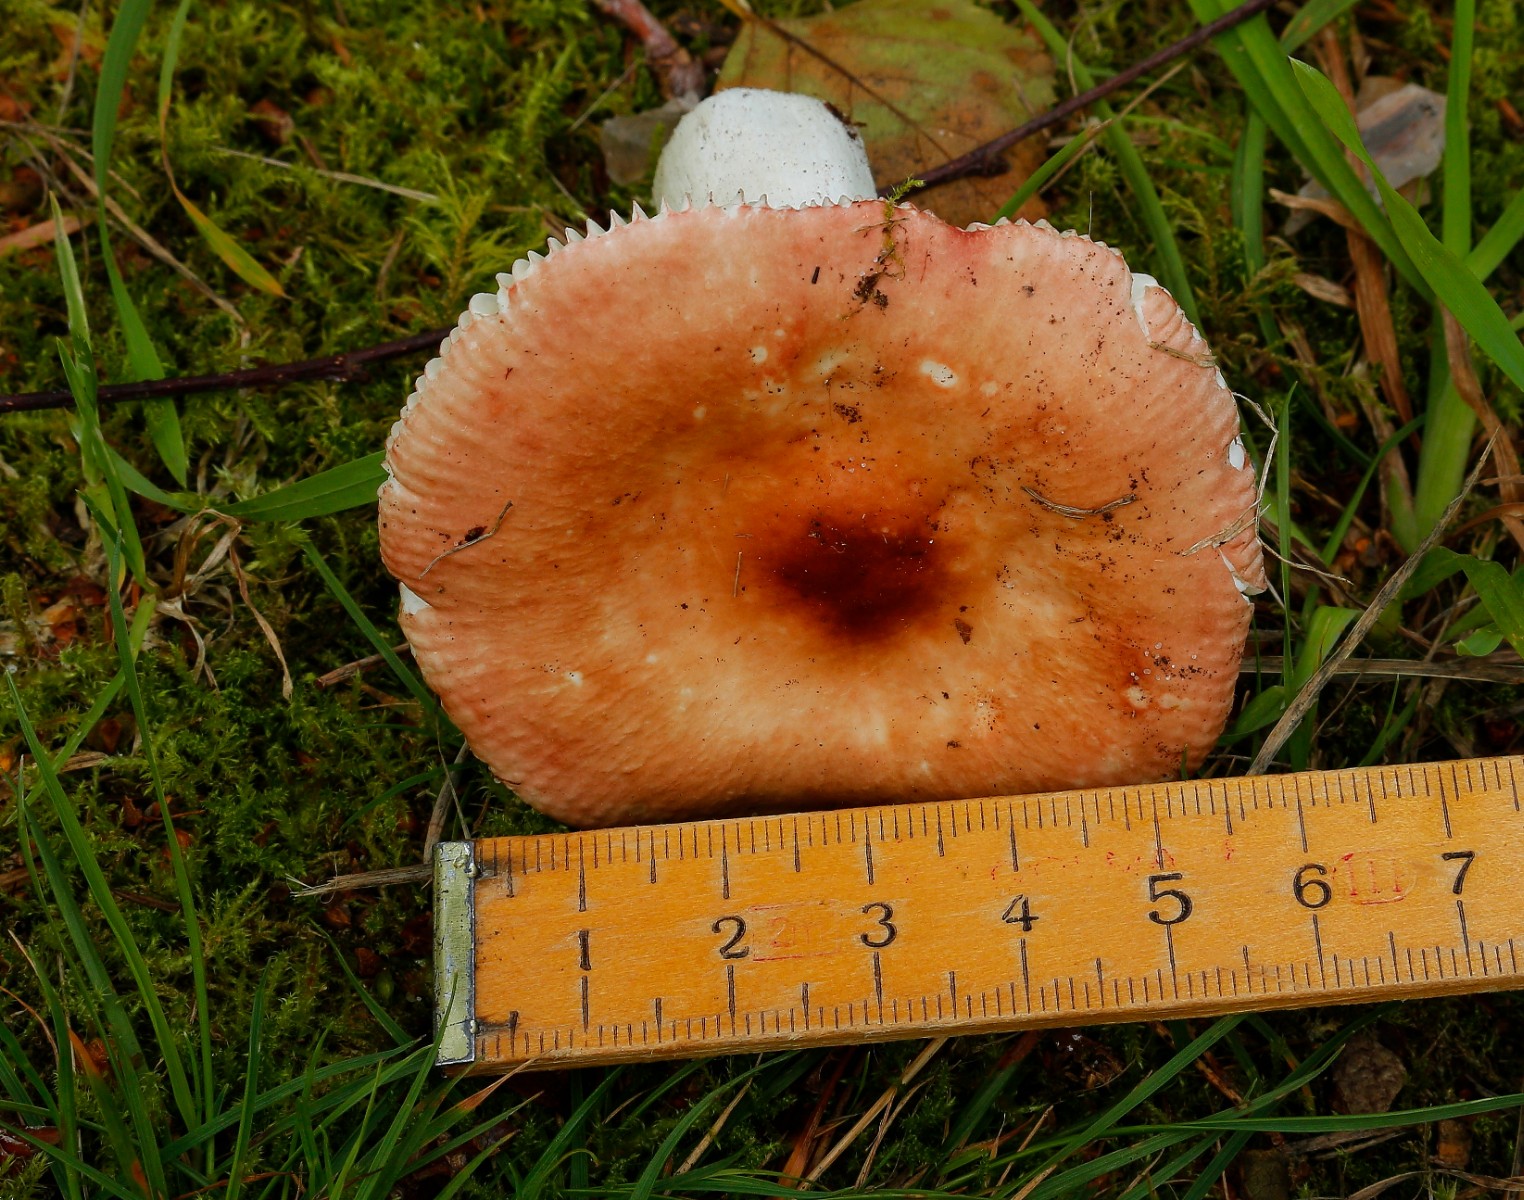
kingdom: Fungi
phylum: Basidiomycota
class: Agaricomycetes
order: Russulales
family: Russulaceae
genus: Russula
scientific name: Russula
